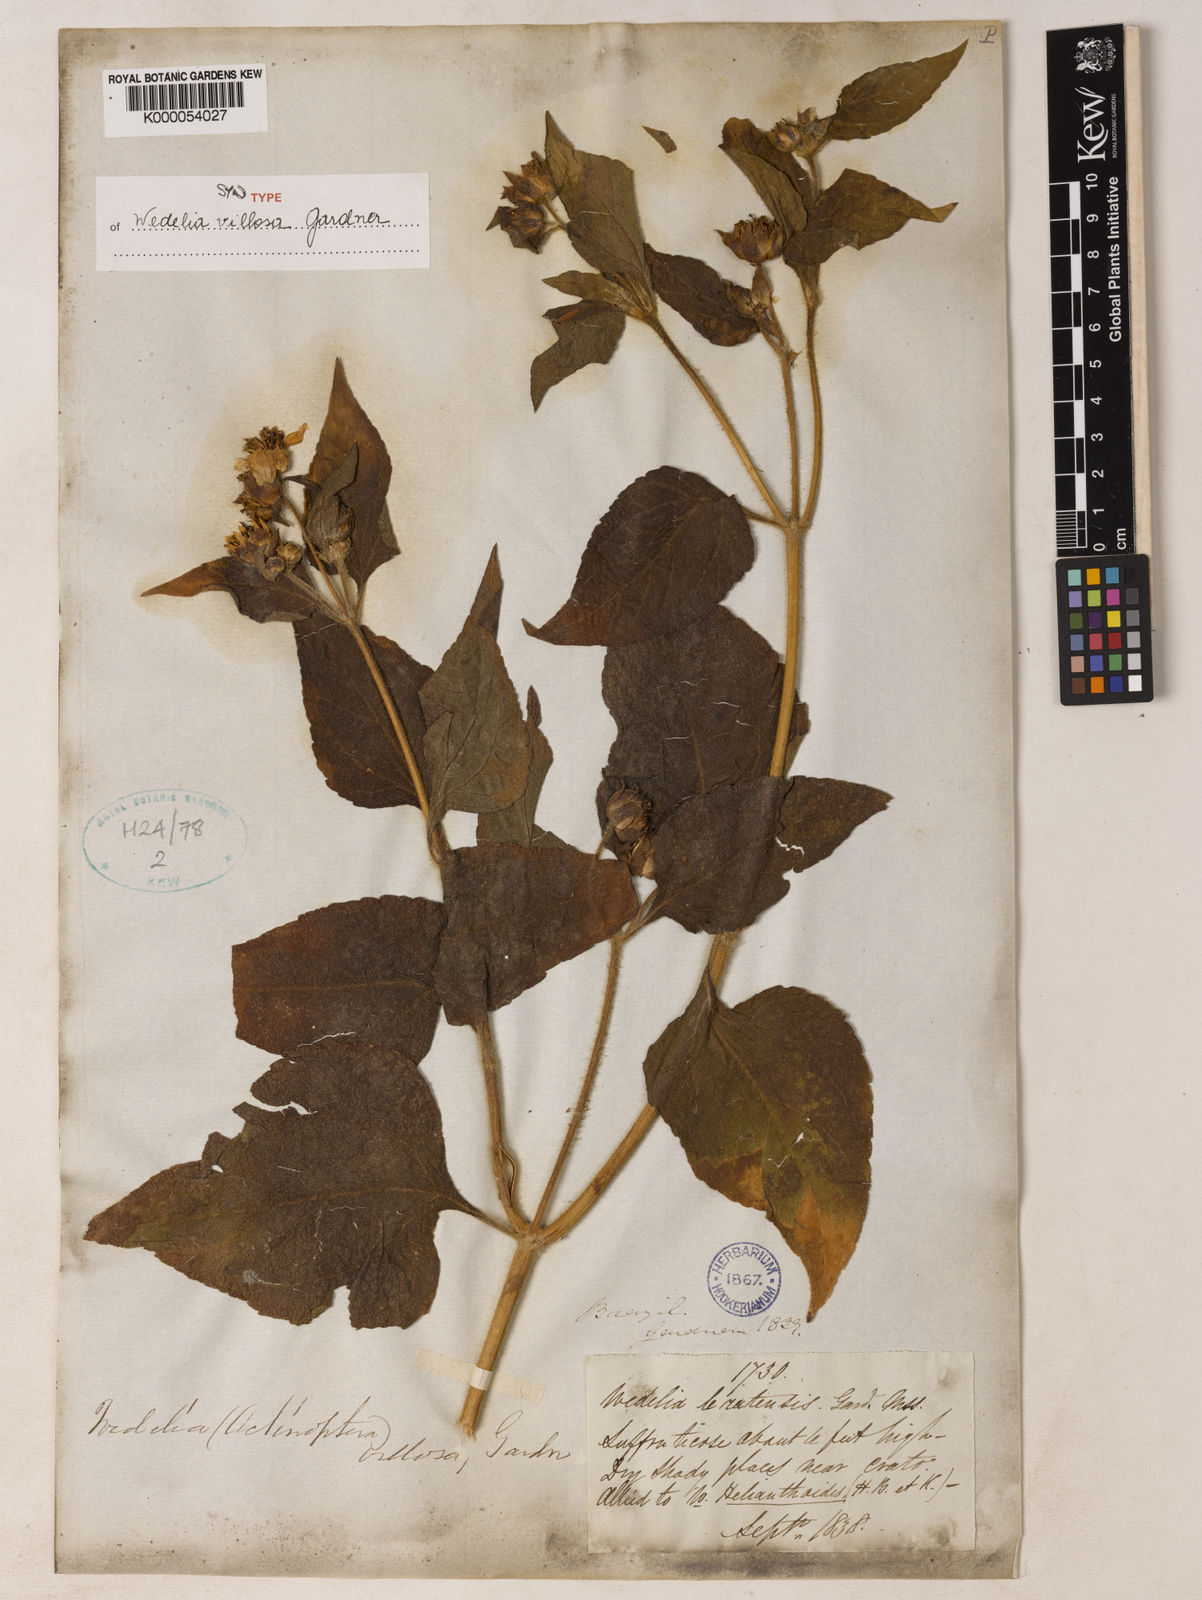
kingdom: Plantae
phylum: Tracheophyta
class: Magnoliopsida
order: Asterales
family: Asteraceae
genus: Wedelia
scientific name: Wedelia villosa
